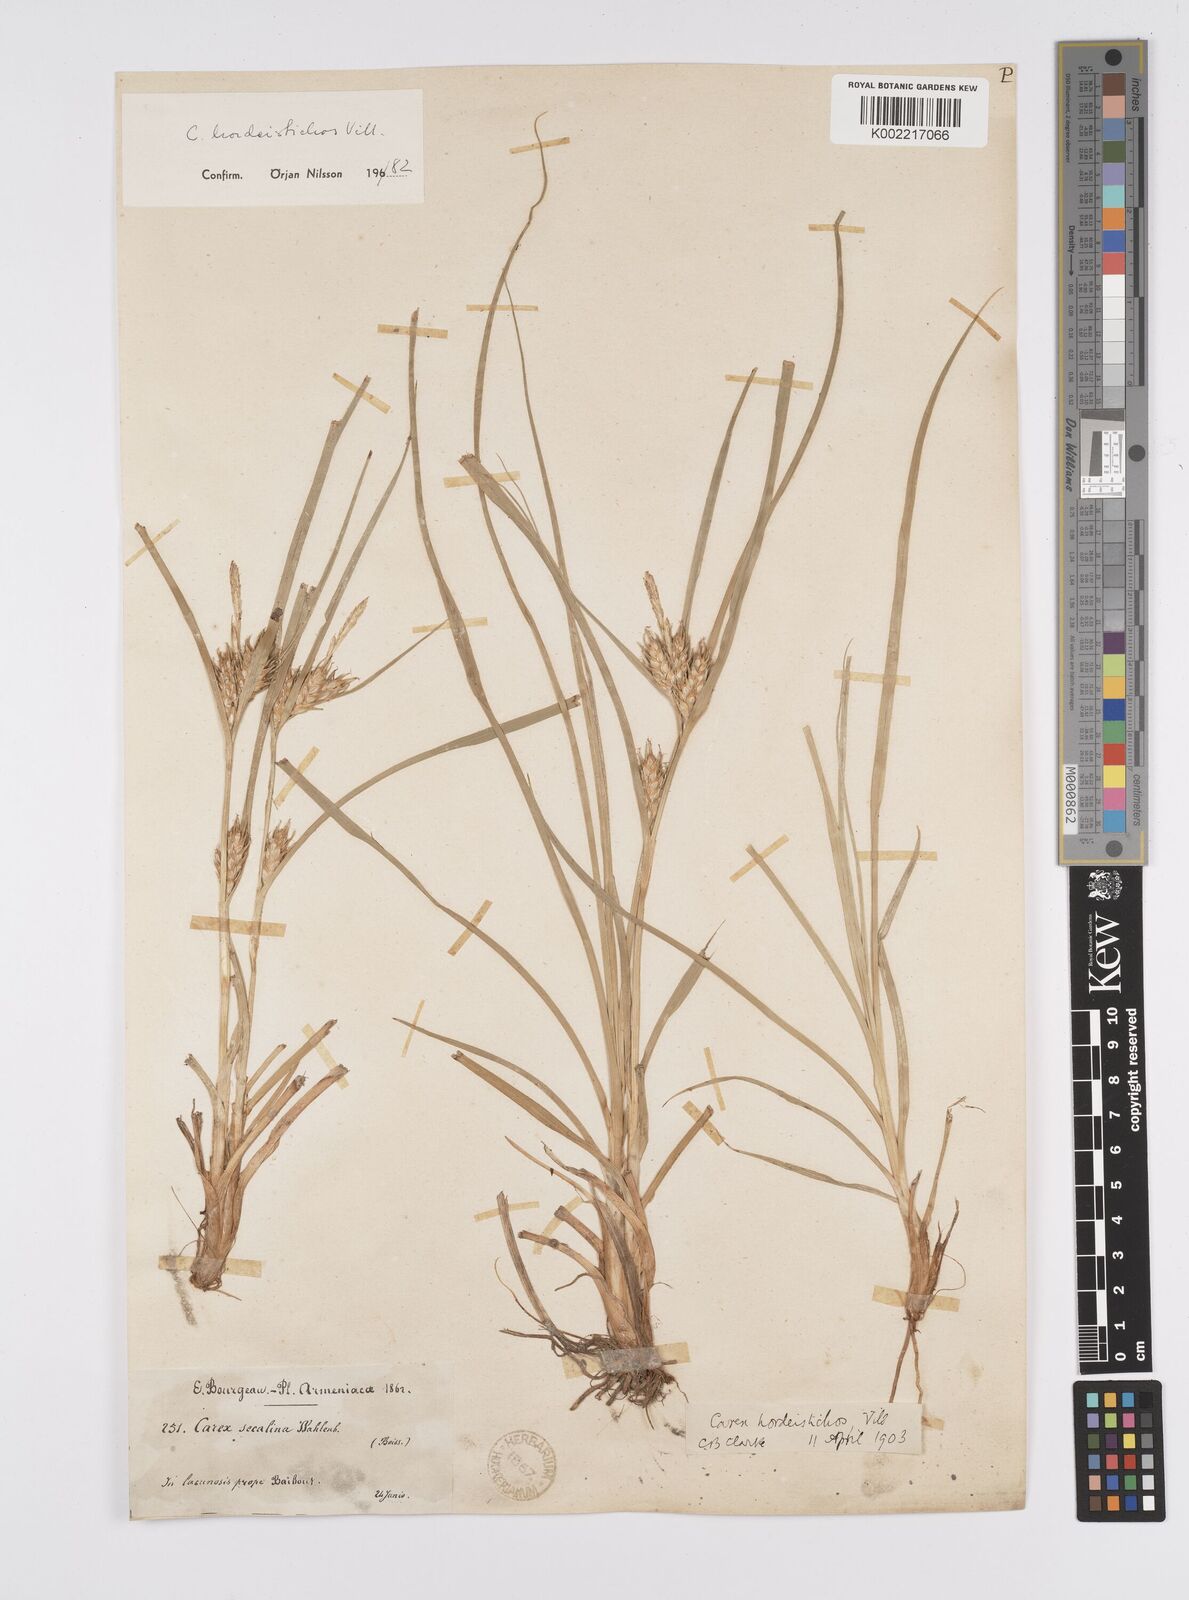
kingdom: Plantae
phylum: Tracheophyta
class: Liliopsida
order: Poales
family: Cyperaceae
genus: Carex
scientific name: Carex hordeistichos
